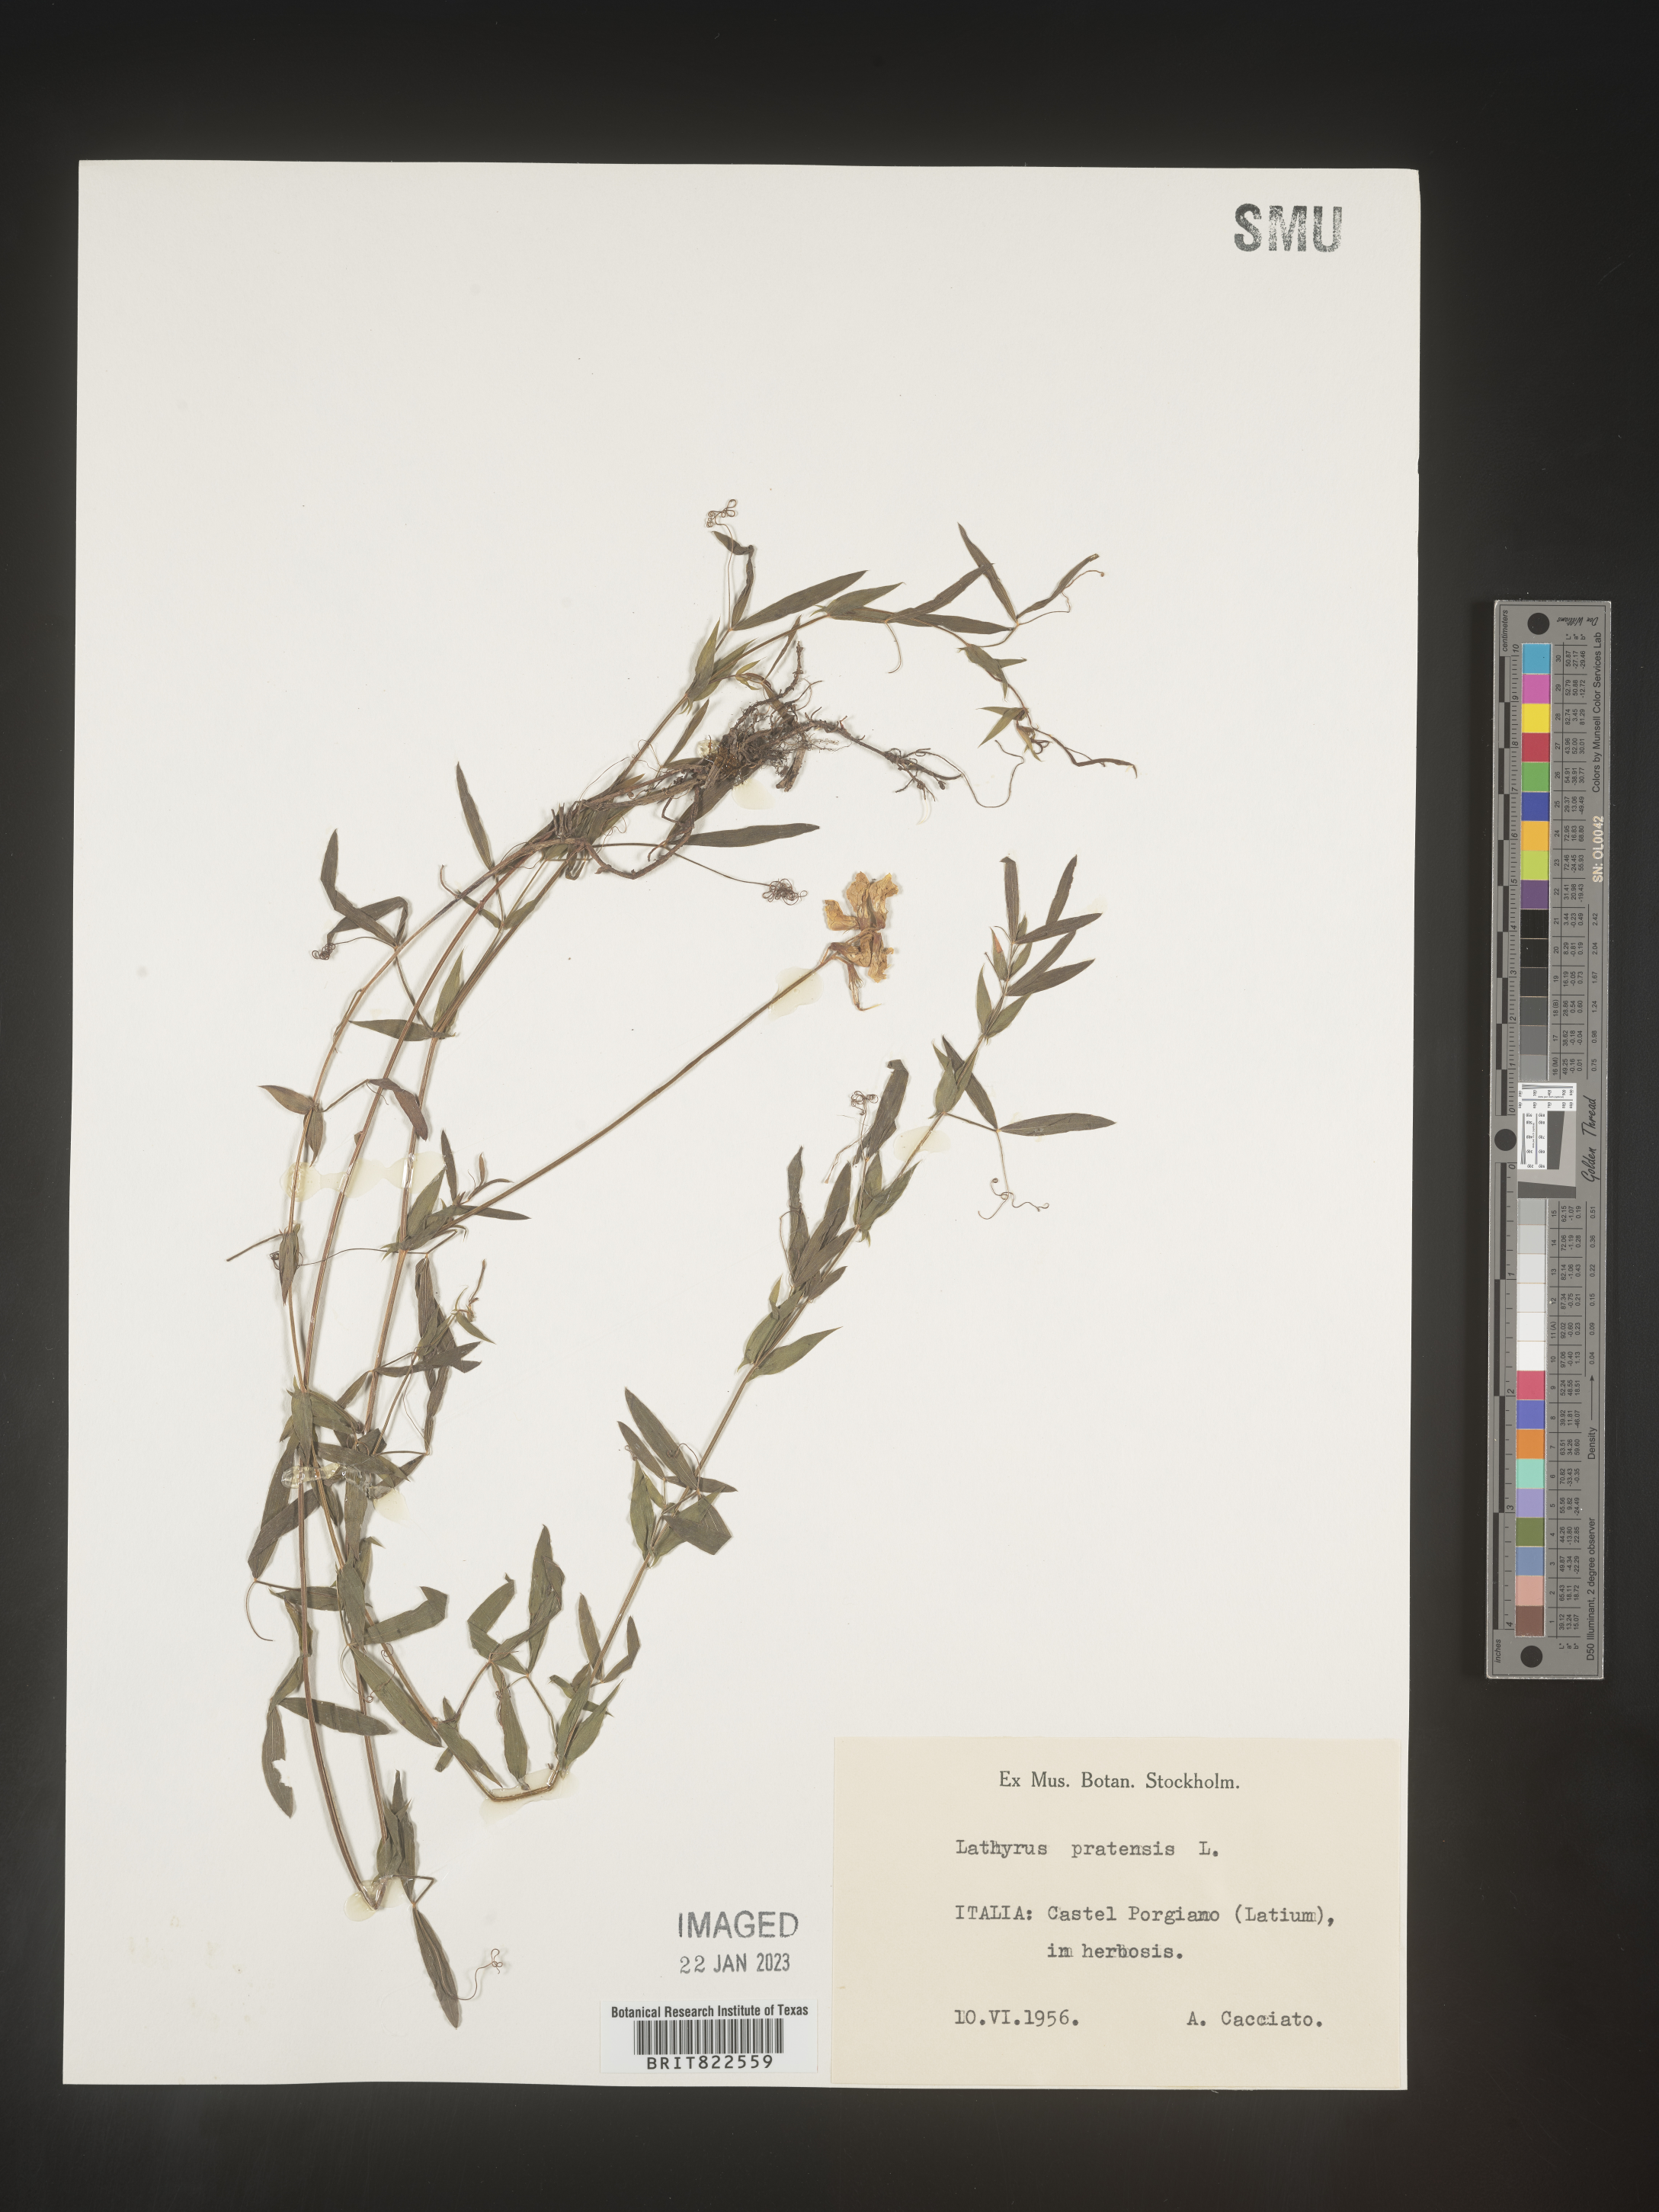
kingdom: Plantae
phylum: Tracheophyta
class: Magnoliopsida
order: Fabales
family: Fabaceae
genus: Lathyrus
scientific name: Lathyrus
